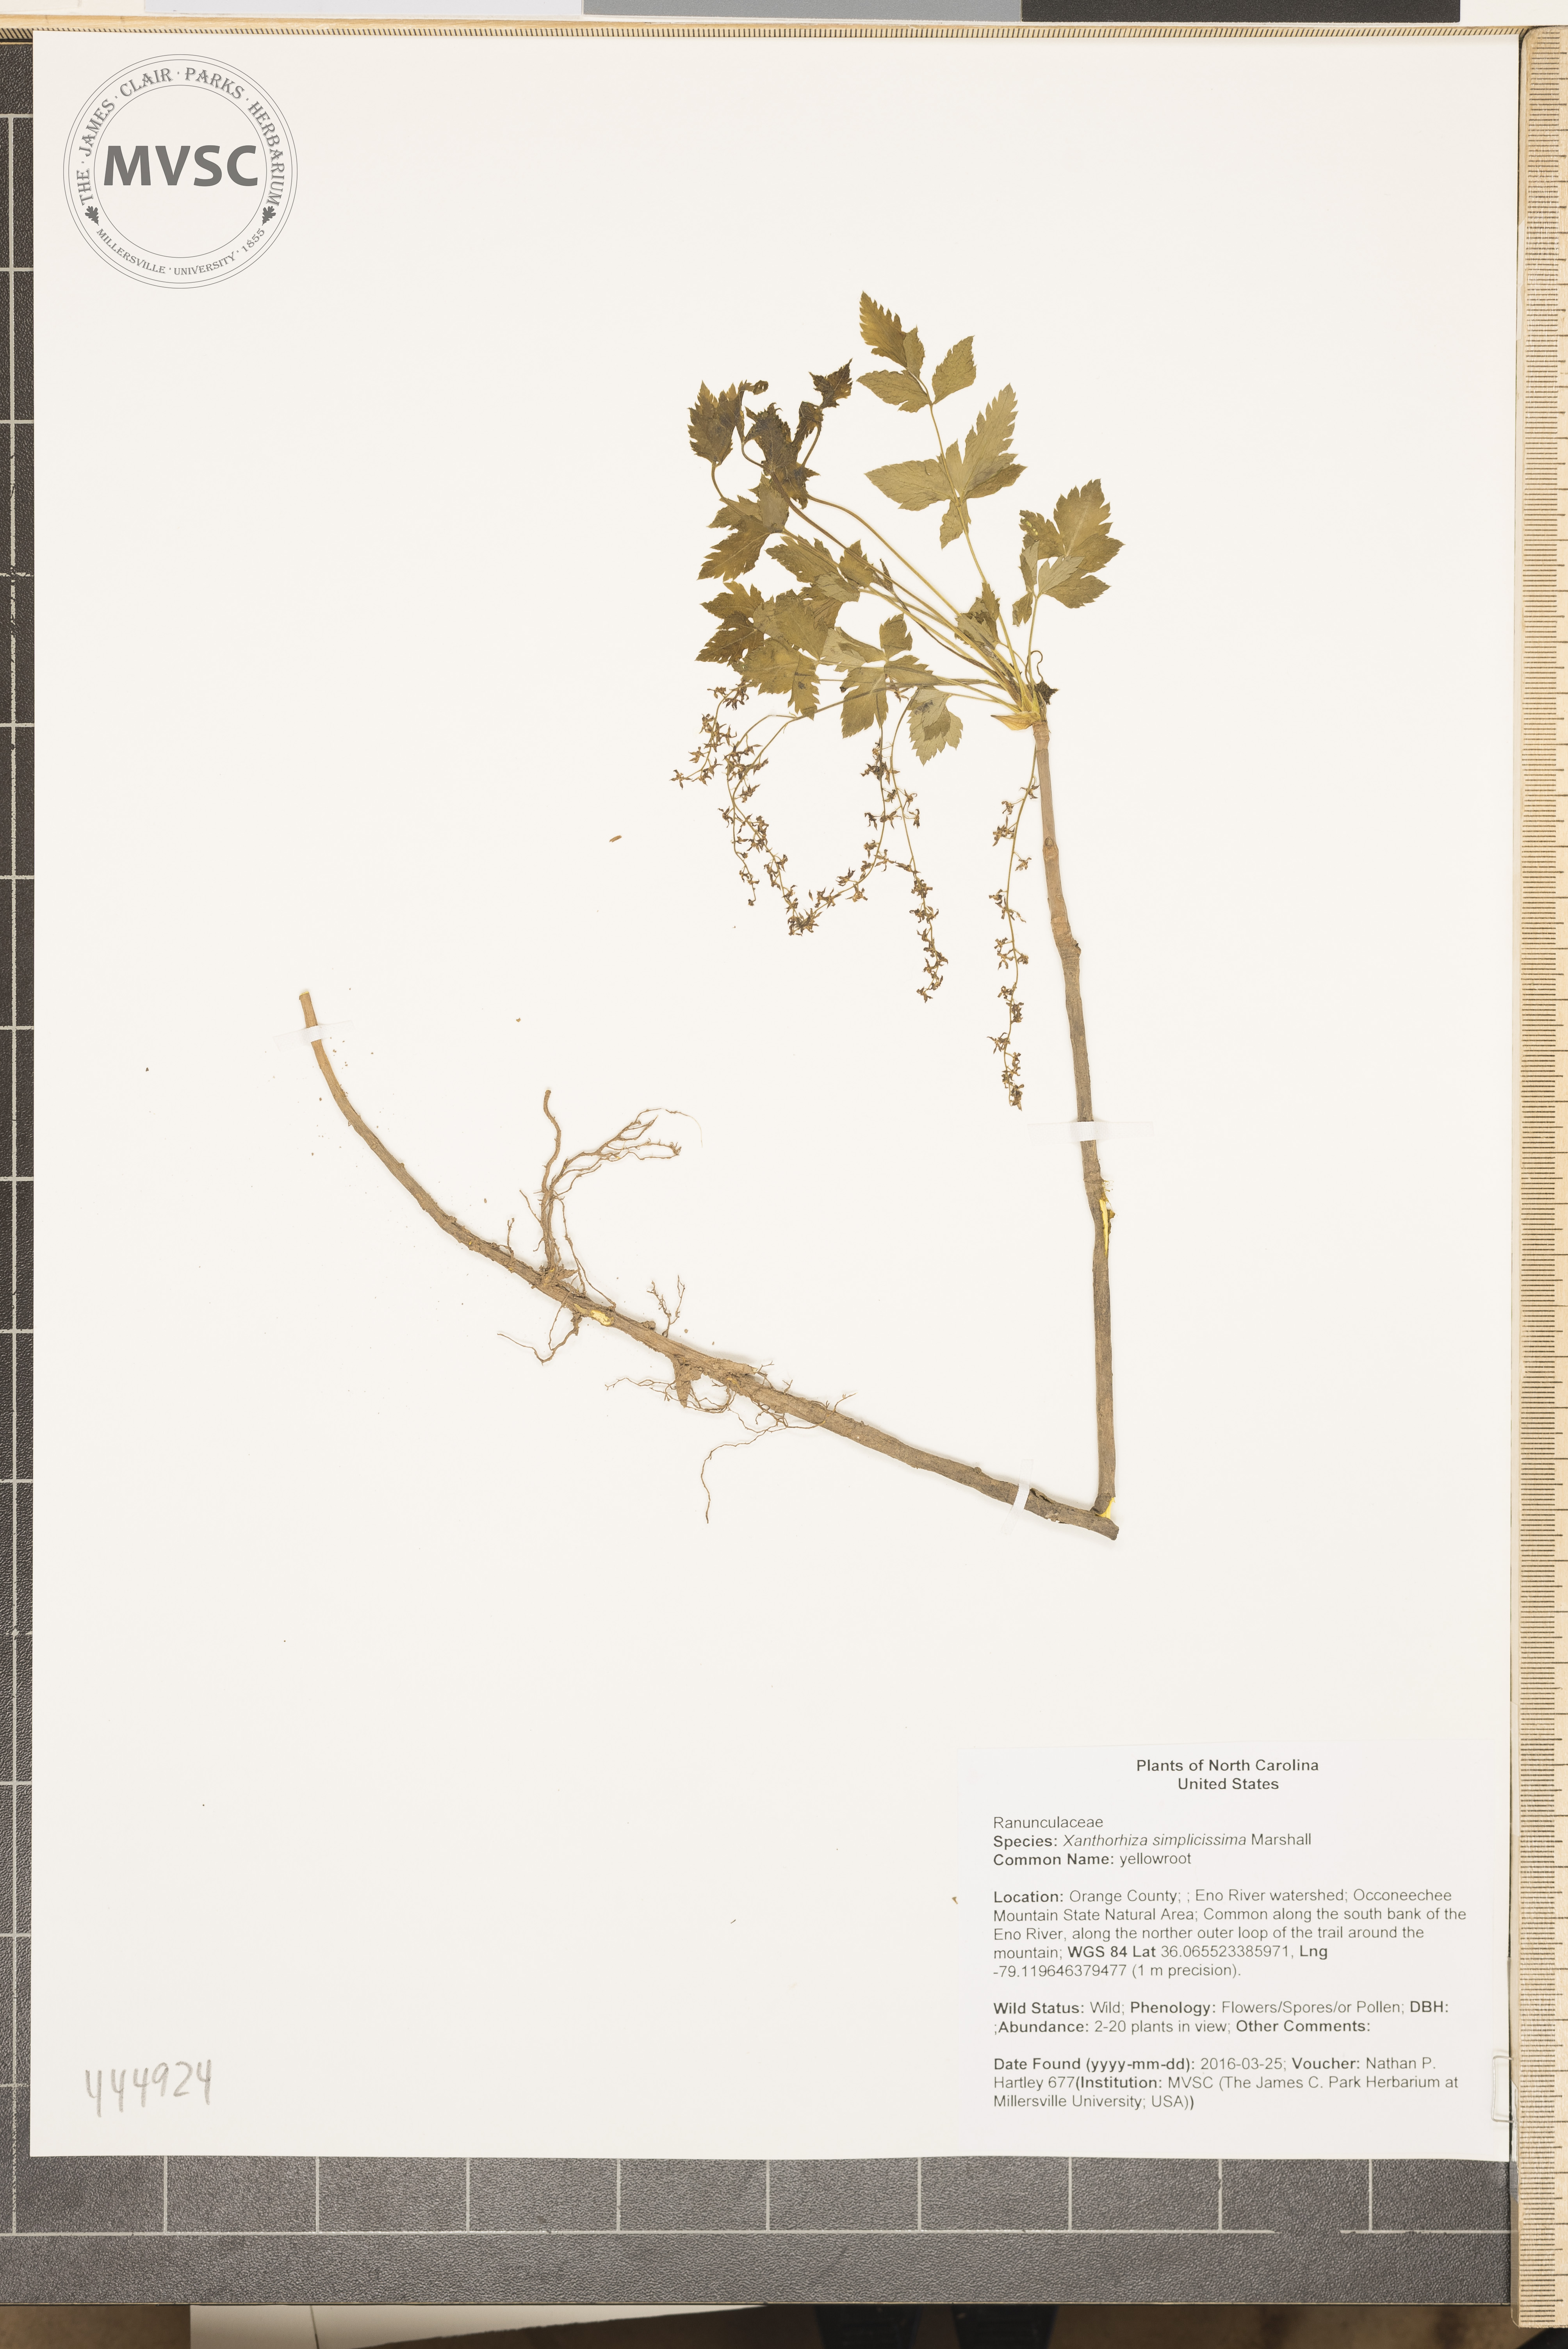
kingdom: Plantae
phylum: Tracheophyta
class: Magnoliopsida
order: Ranunculales
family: Ranunculaceae
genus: Xanthorhiza
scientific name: Xanthorhiza simplicissima
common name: yellowroot
